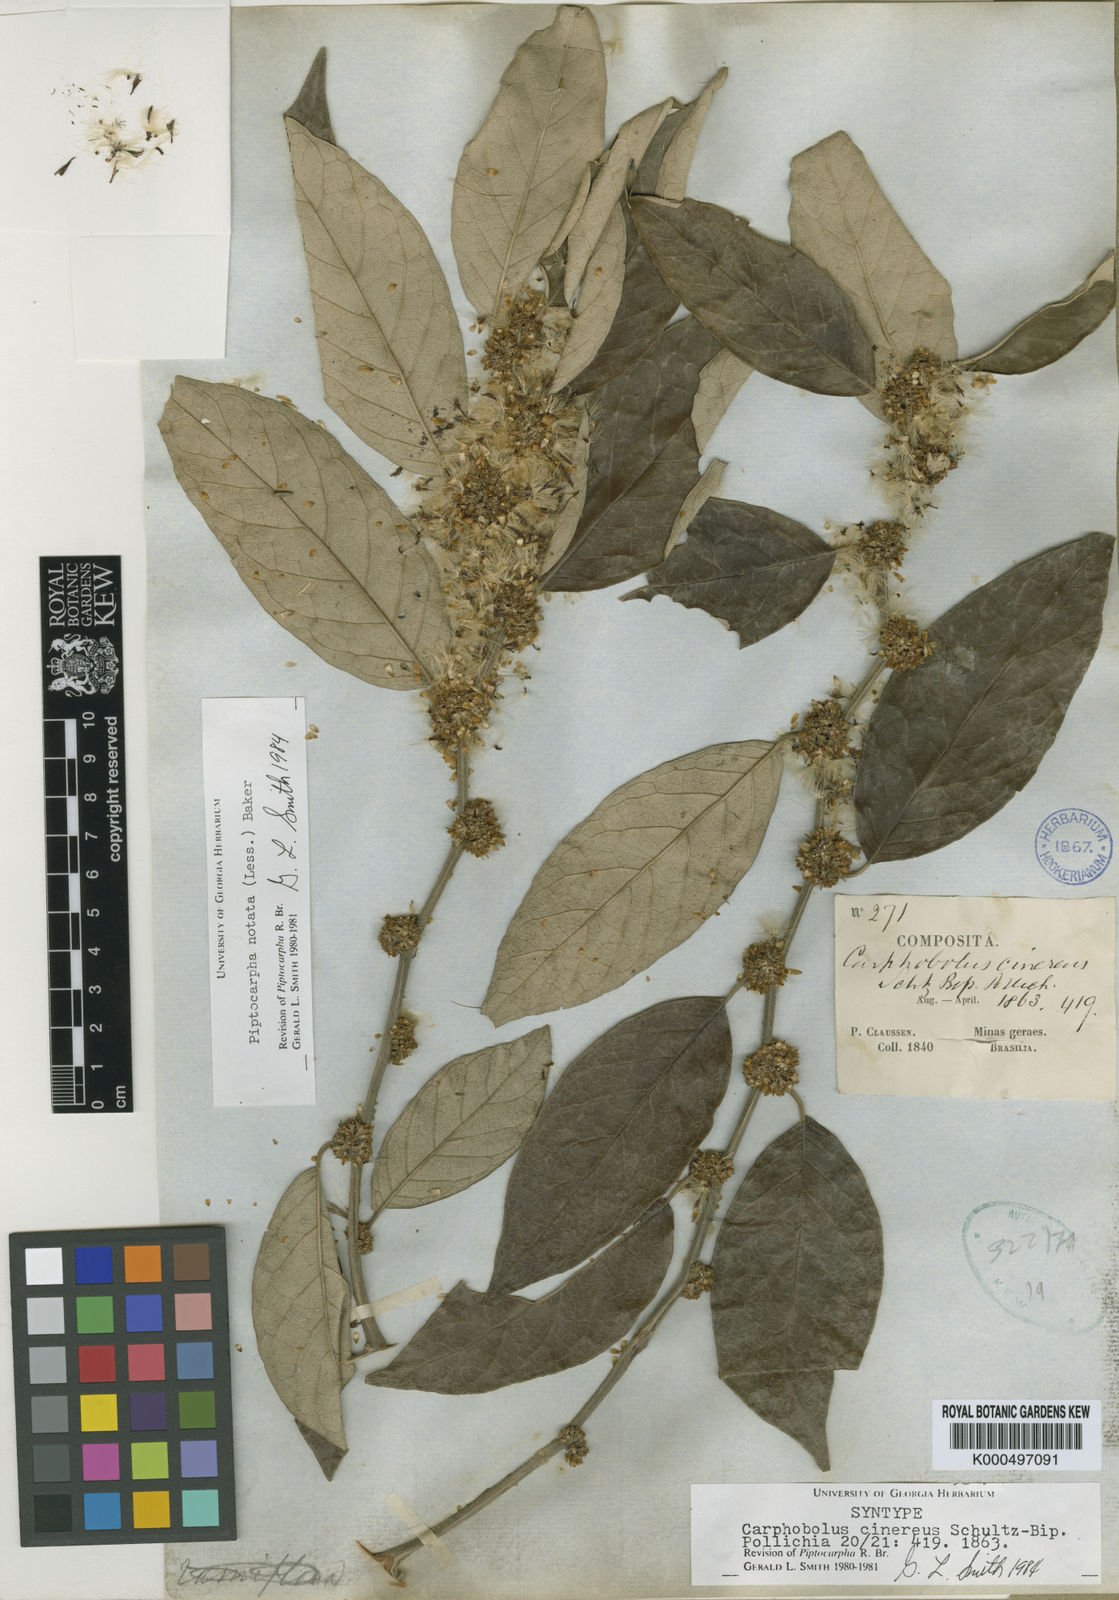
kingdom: Plantae
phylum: Tracheophyta
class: Magnoliopsida
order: Asterales
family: Asteraceae
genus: Piptocarpha
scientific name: Piptocarpha notata
